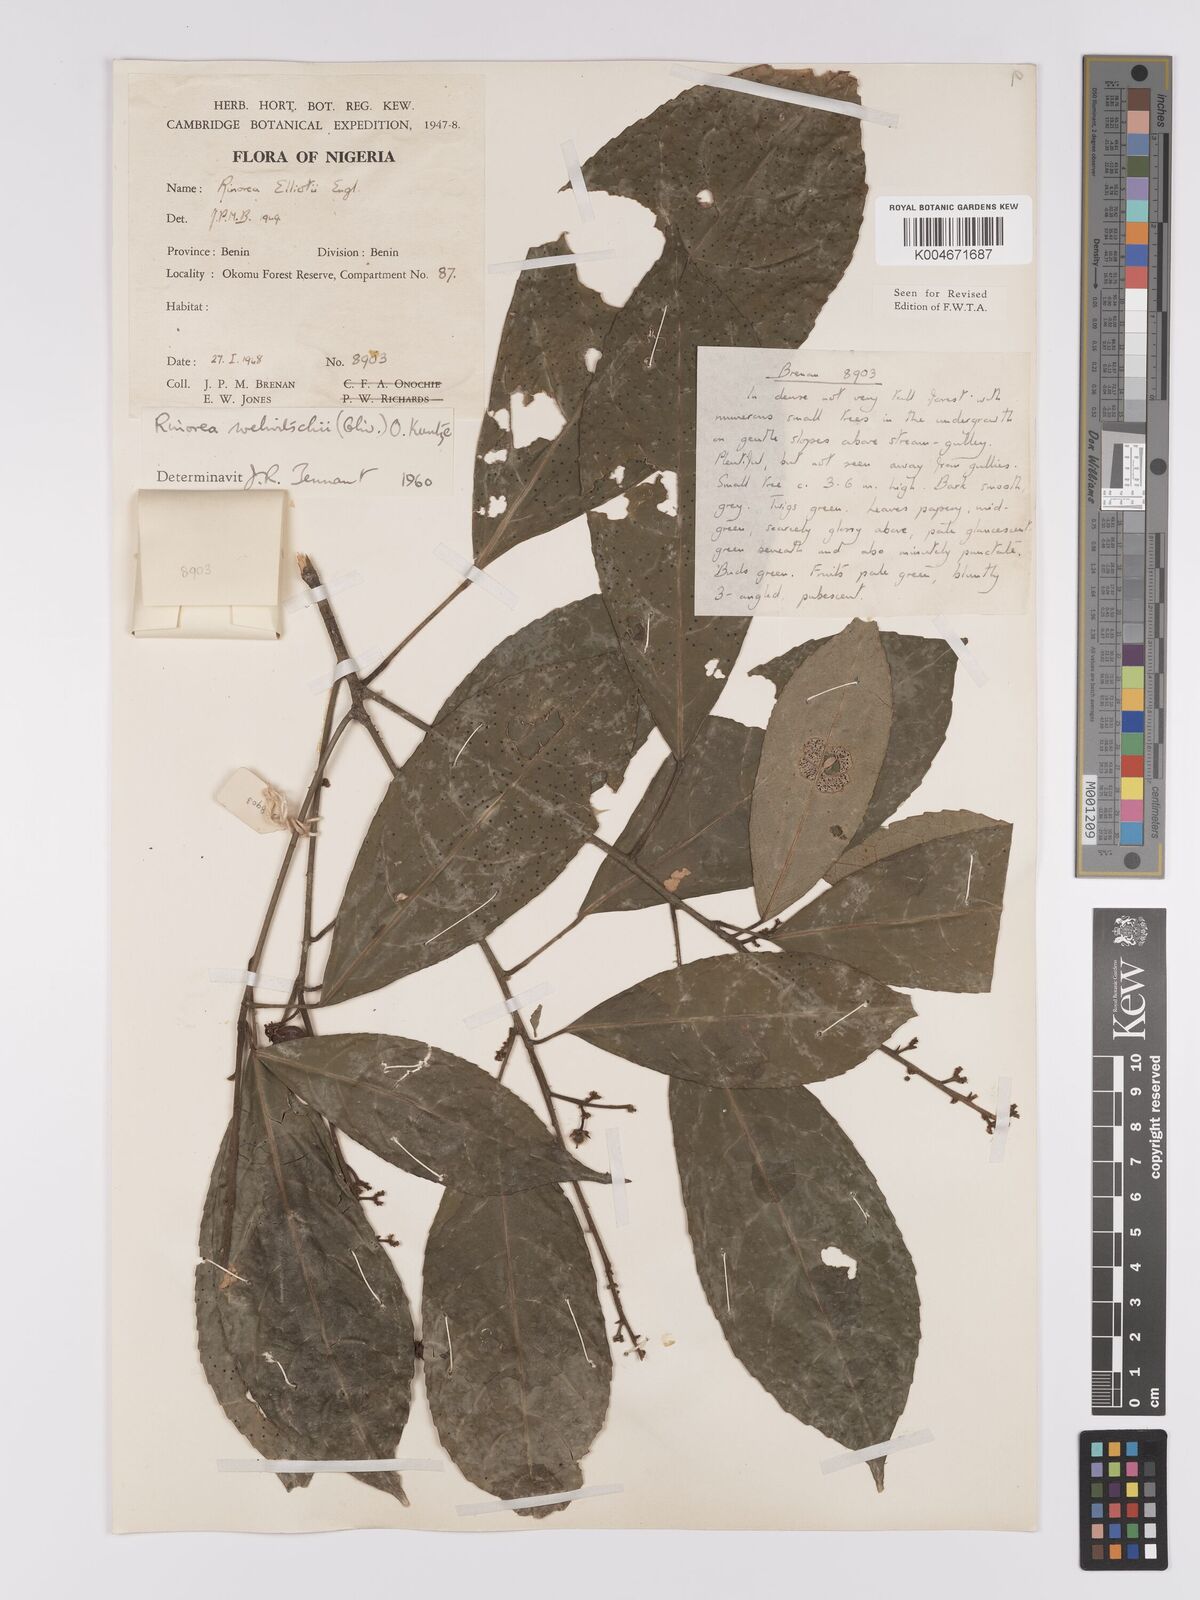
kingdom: Plantae
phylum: Tracheophyta
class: Magnoliopsida
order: Malpighiales
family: Violaceae
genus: Rinorea
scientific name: Rinorea welwitschii
